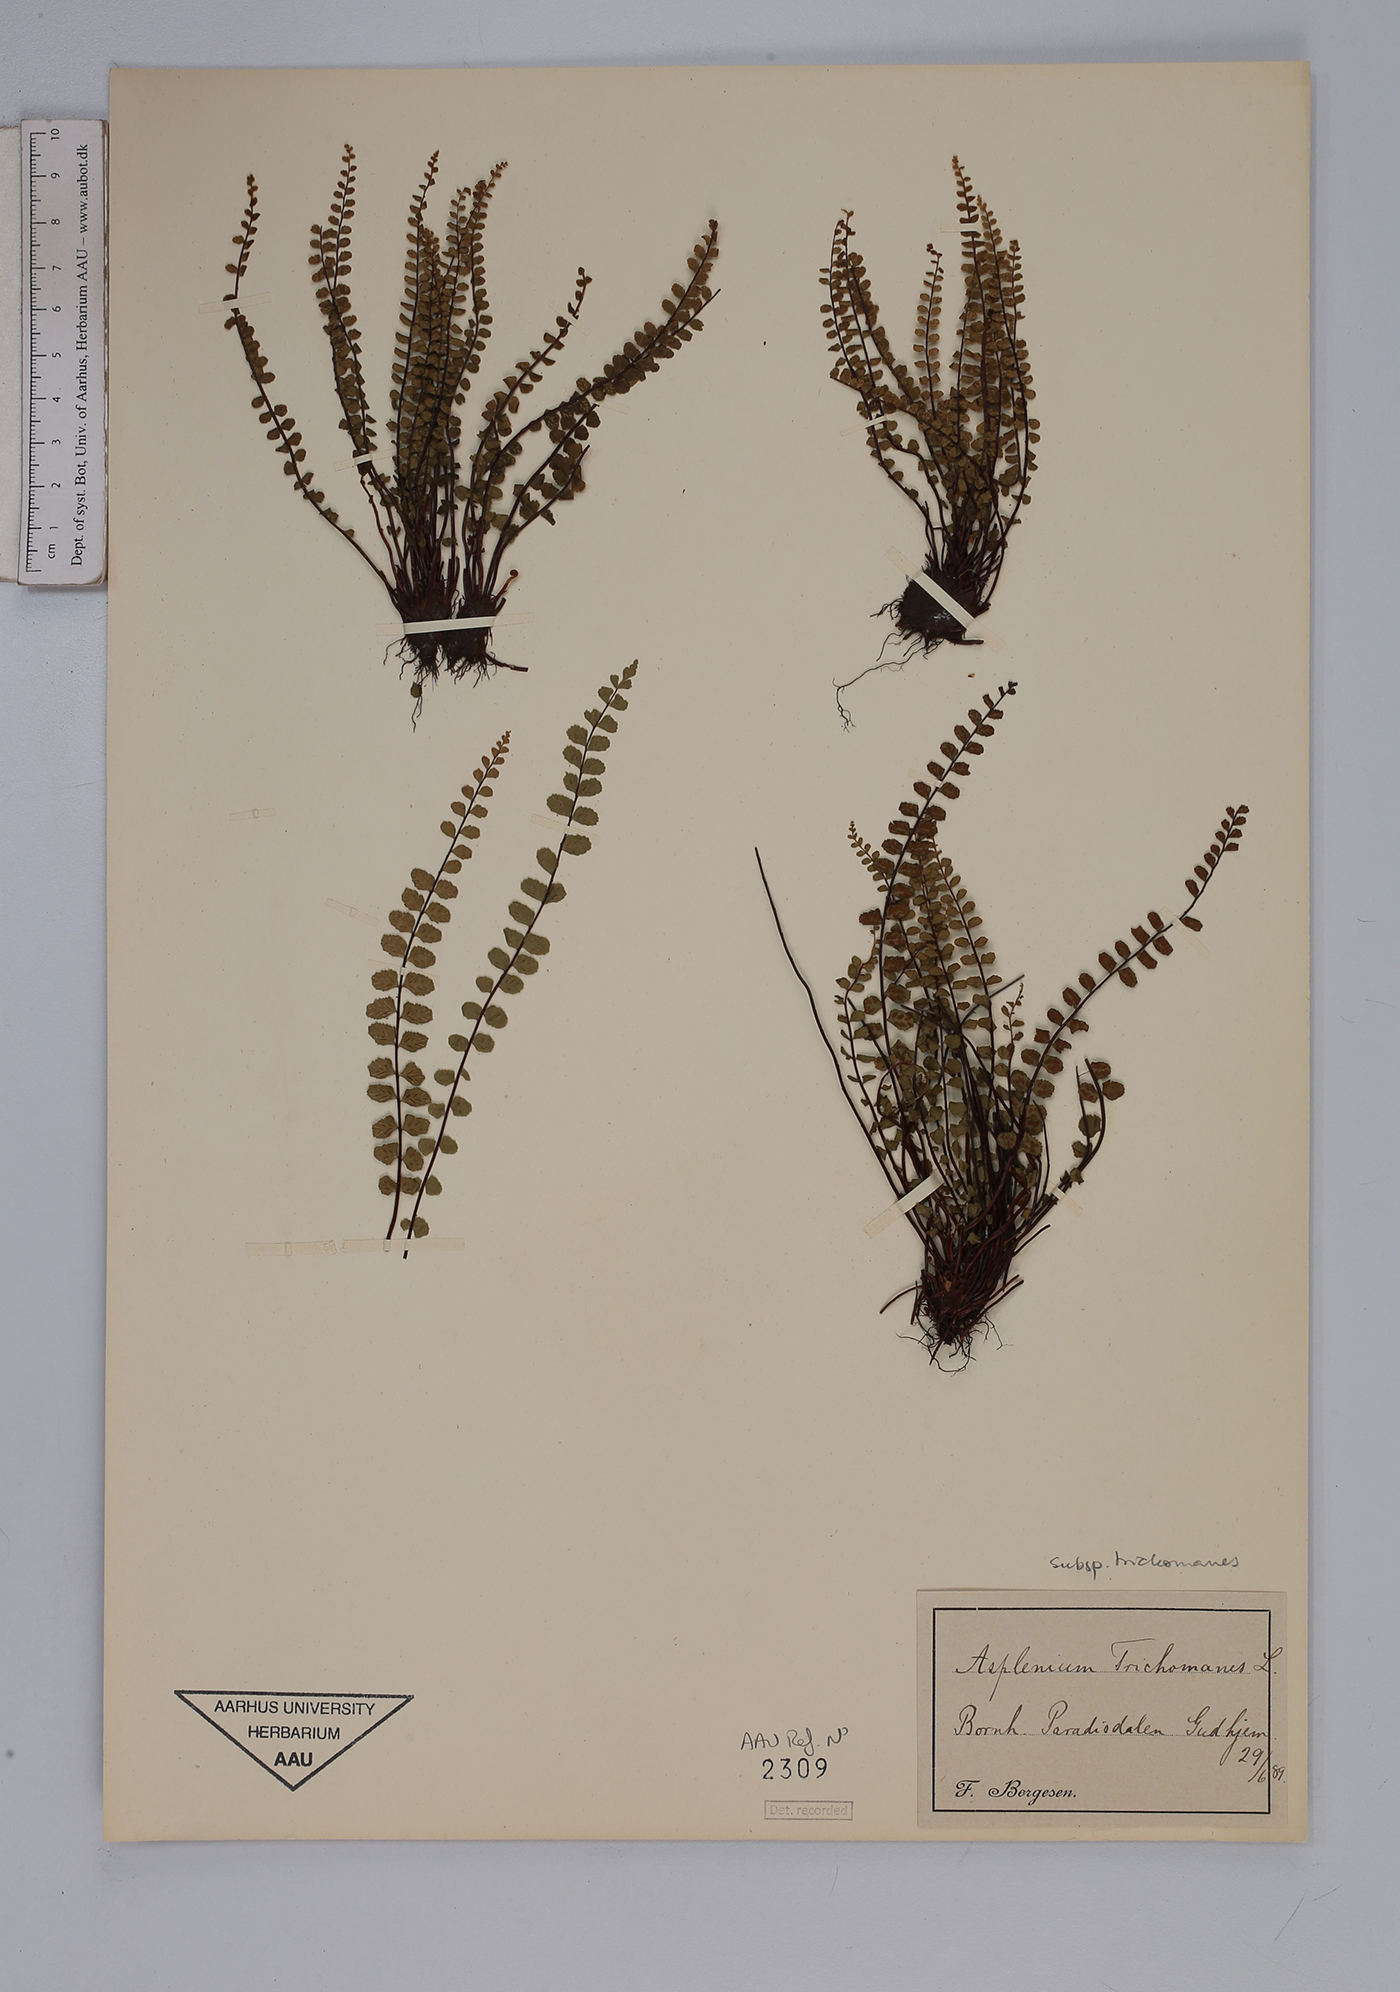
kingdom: Plantae
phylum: Tracheophyta
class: Polypodiopsida
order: Polypodiales
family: Aspleniaceae
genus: Asplenium
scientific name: Asplenium trichomanes
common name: Maidenhair spleenwort
